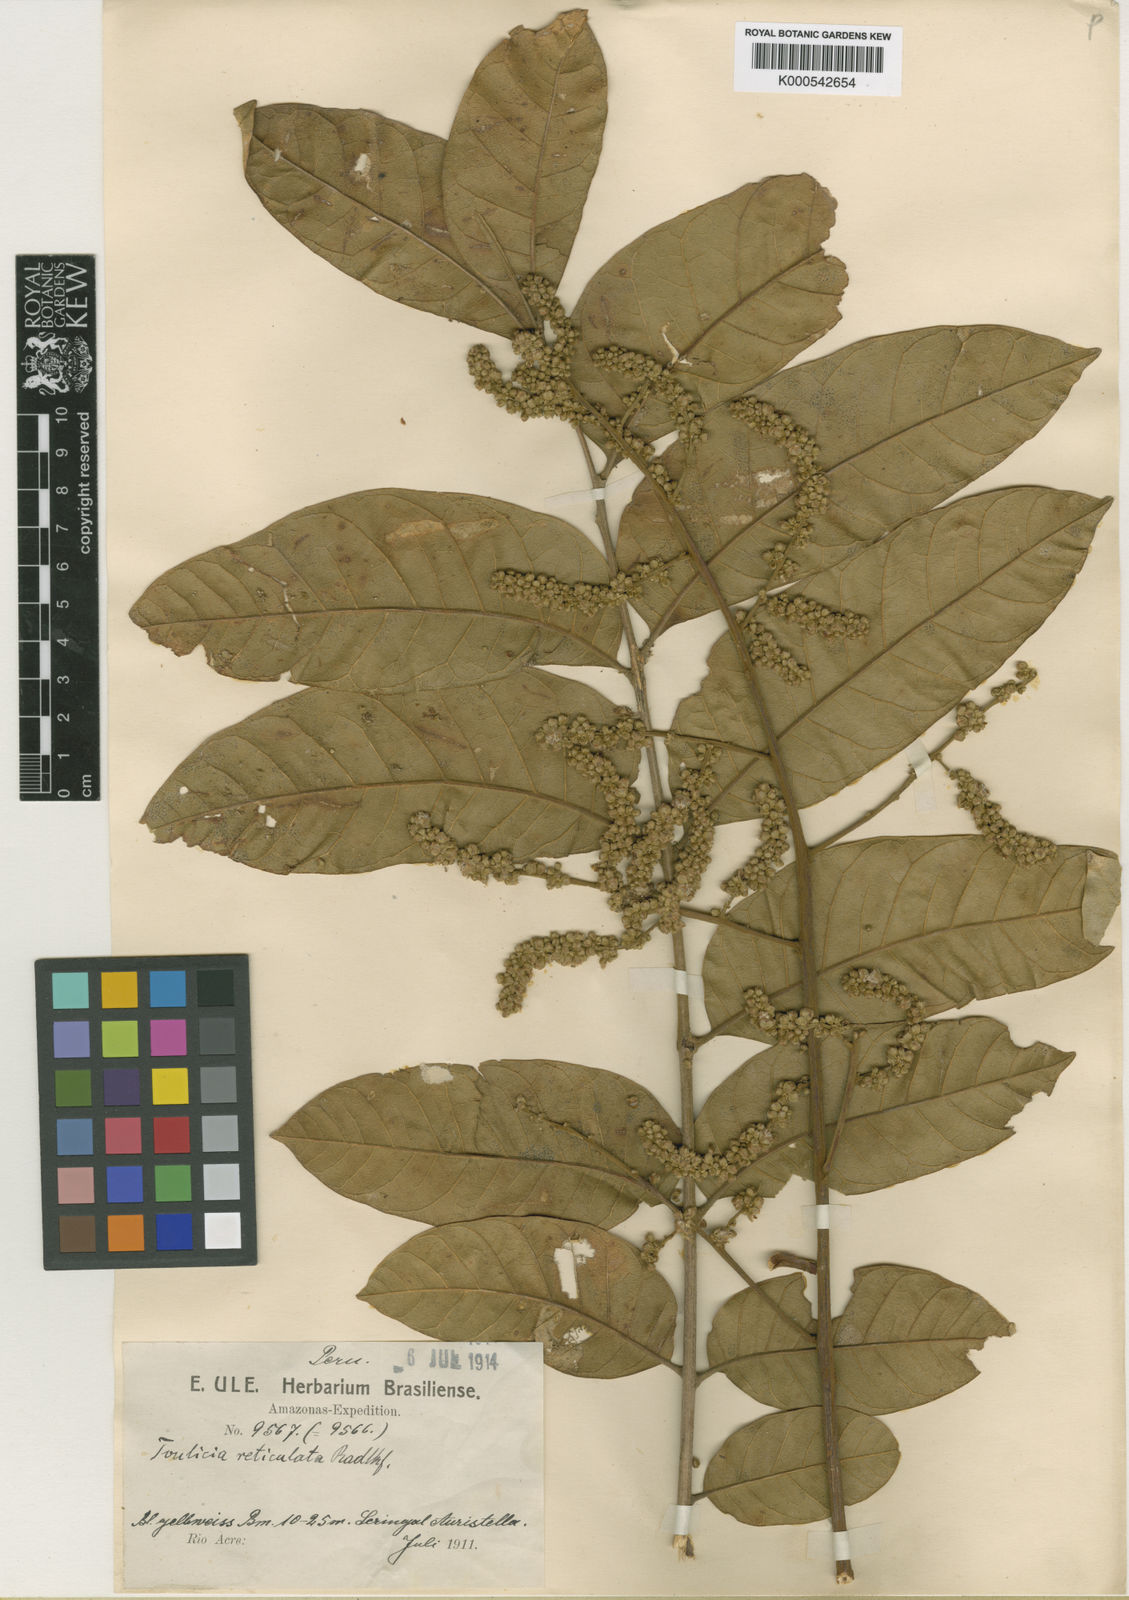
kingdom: Plantae
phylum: Tracheophyta
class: Magnoliopsida
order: Sapindales
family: Sapindaceae
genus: Toulicia
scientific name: Toulicia reticulata
